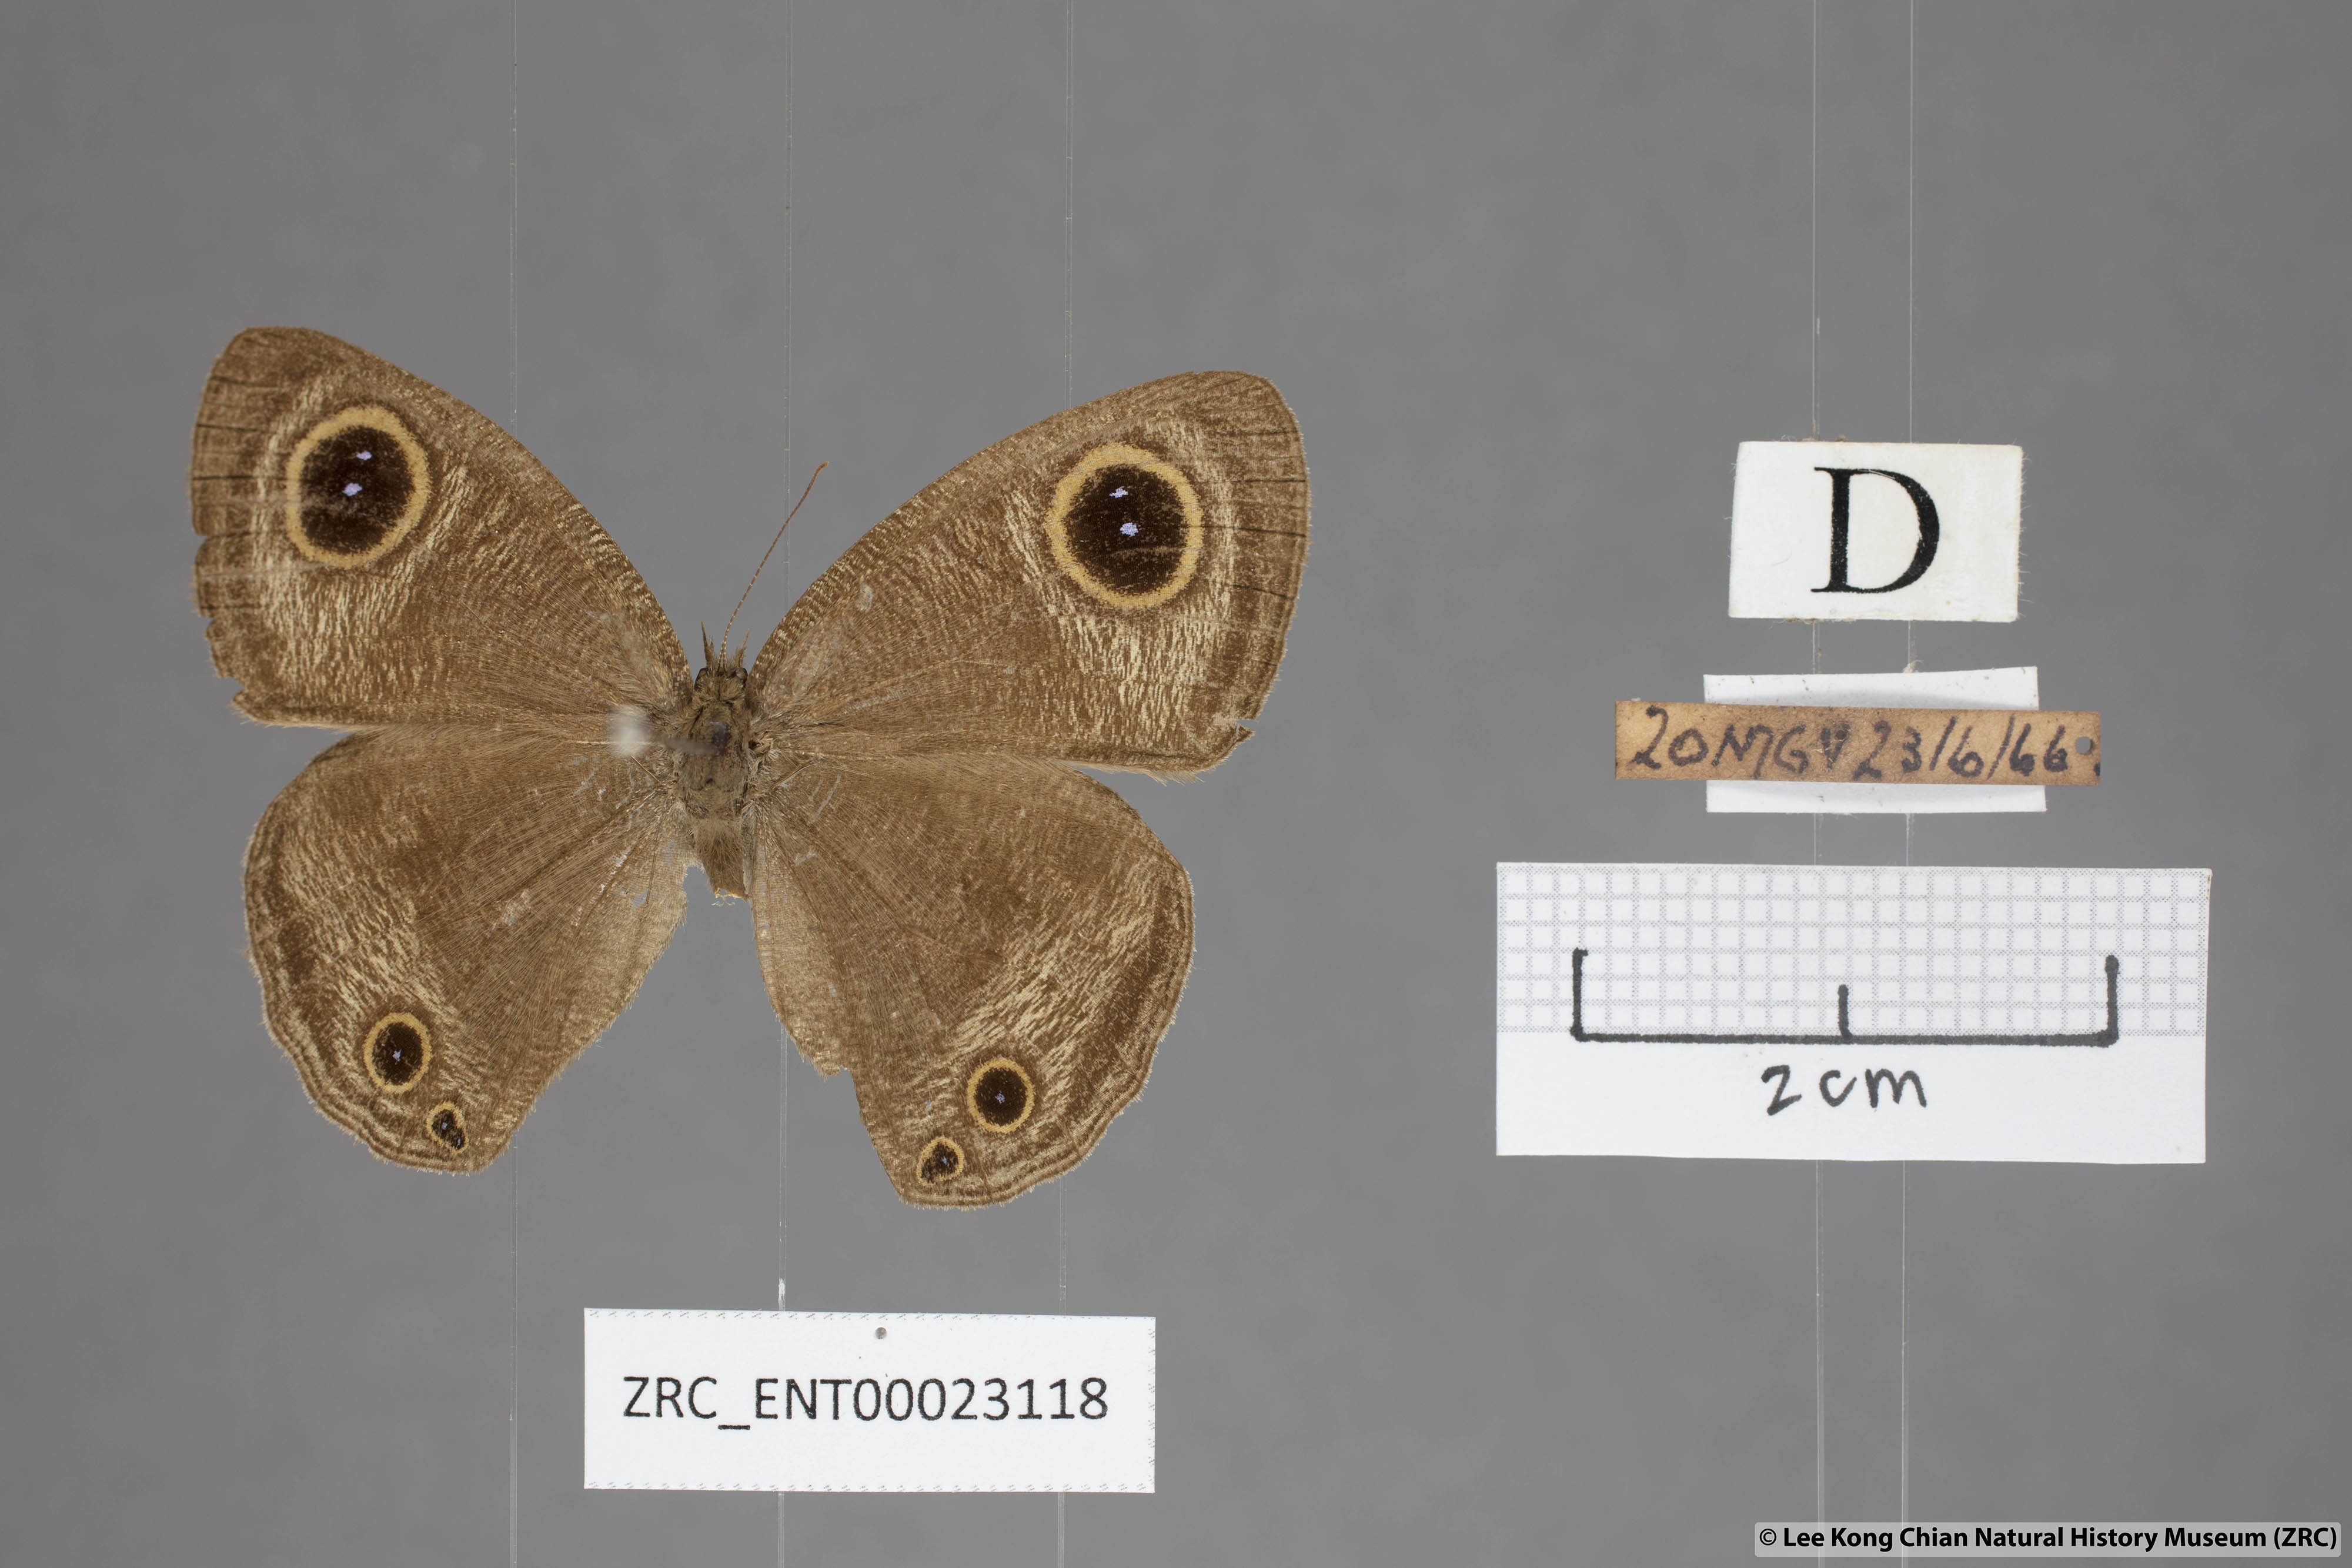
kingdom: Animalia
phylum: Arthropoda
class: Insecta
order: Lepidoptera
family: Nymphalidae
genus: Ypthima
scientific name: Ypthima pandocus
